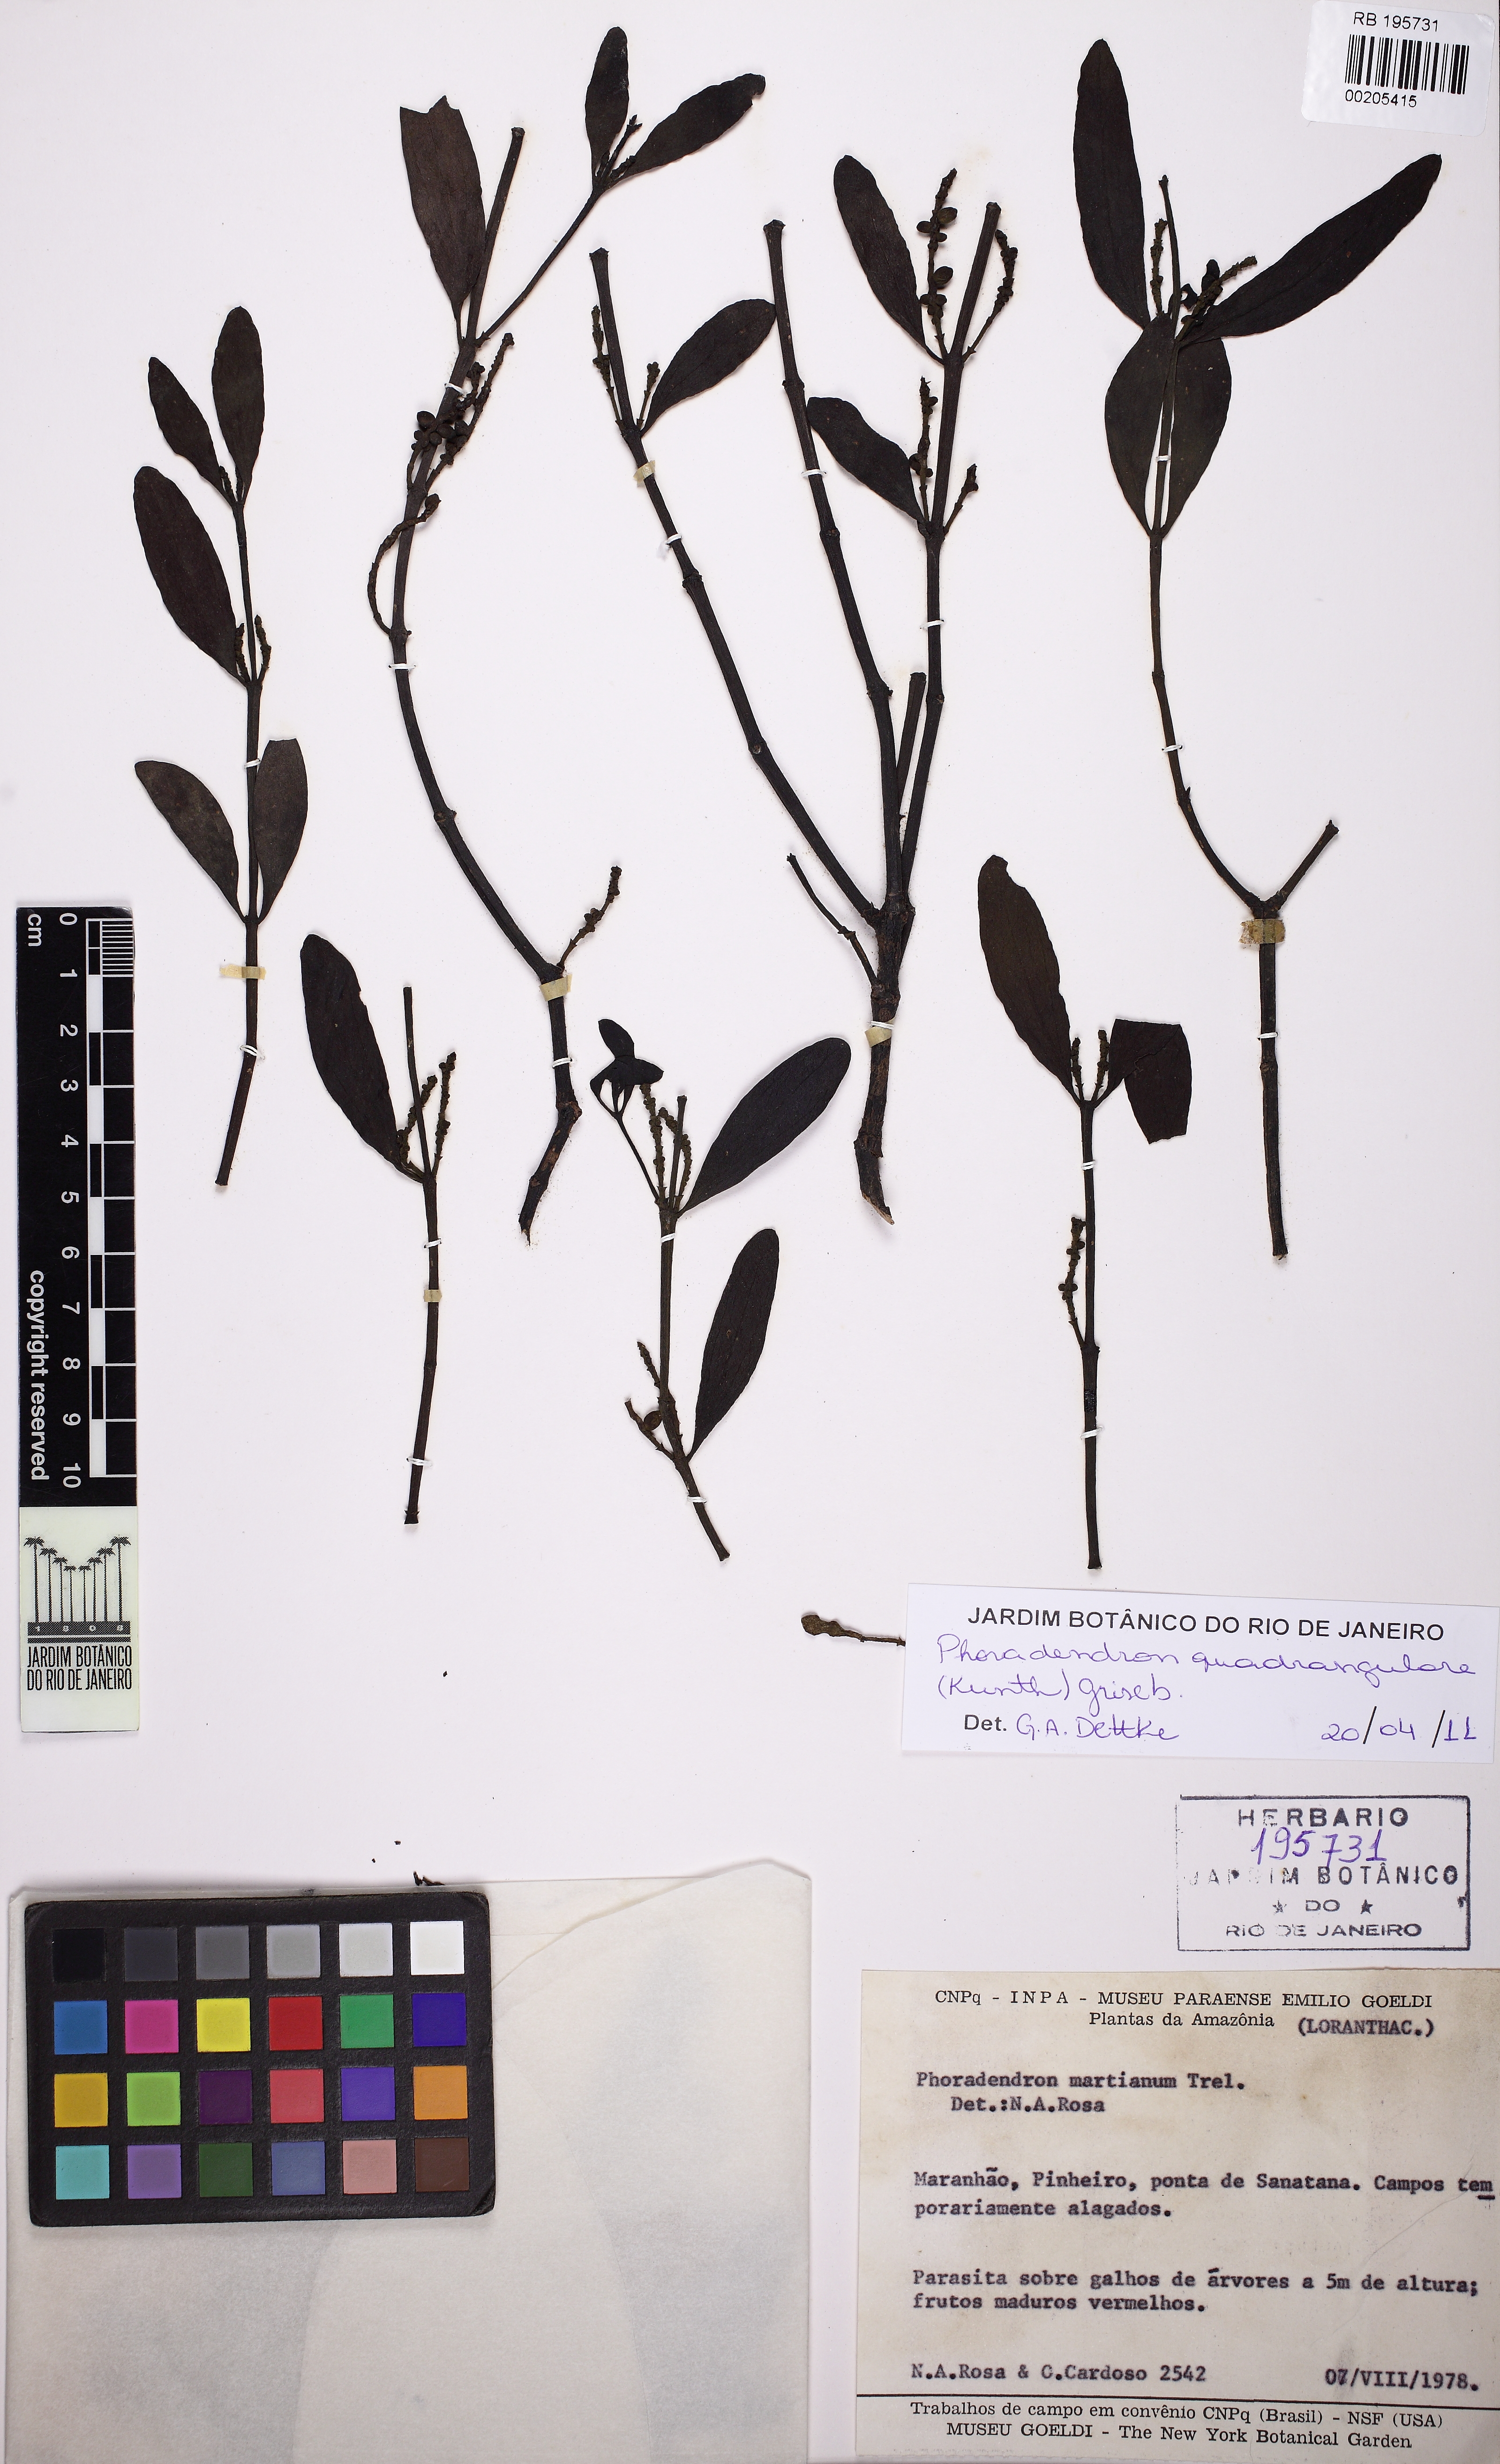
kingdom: Plantae
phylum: Tracheophyta
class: Magnoliopsida
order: Santalales
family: Viscaceae
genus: Phoradendron
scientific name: Phoradendron quadrangulare
